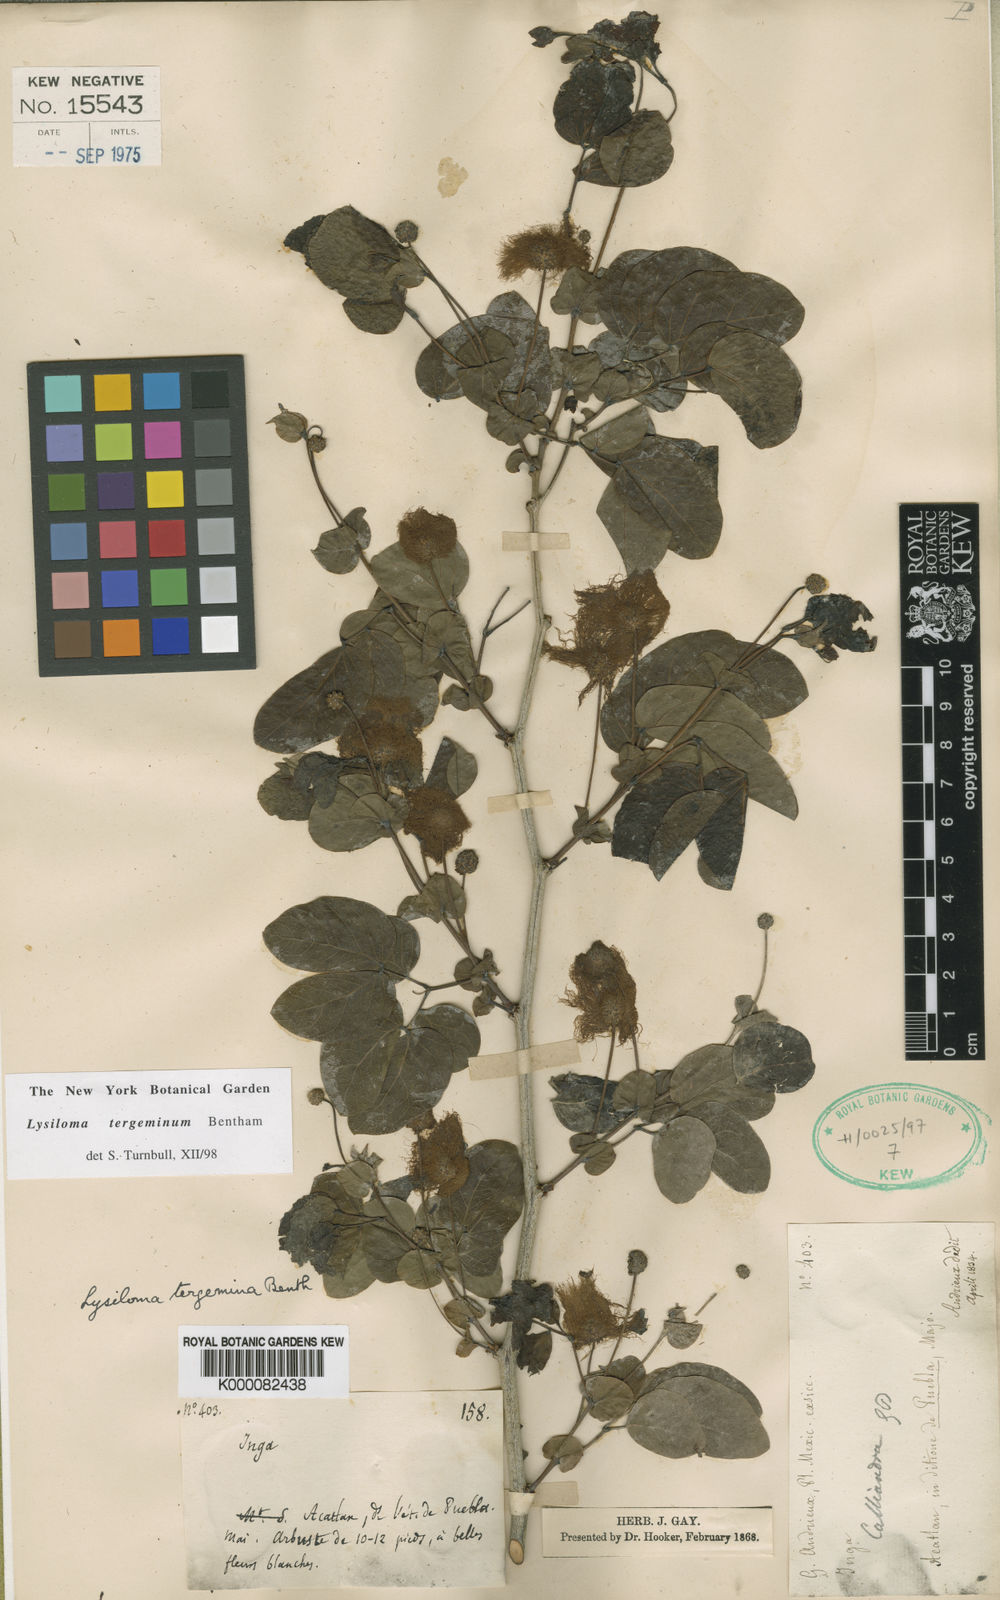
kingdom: Plantae
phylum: Tracheophyta
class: Magnoliopsida
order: Fabales
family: Fabaceae
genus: Lysiloma
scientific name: Lysiloma tergeminum
